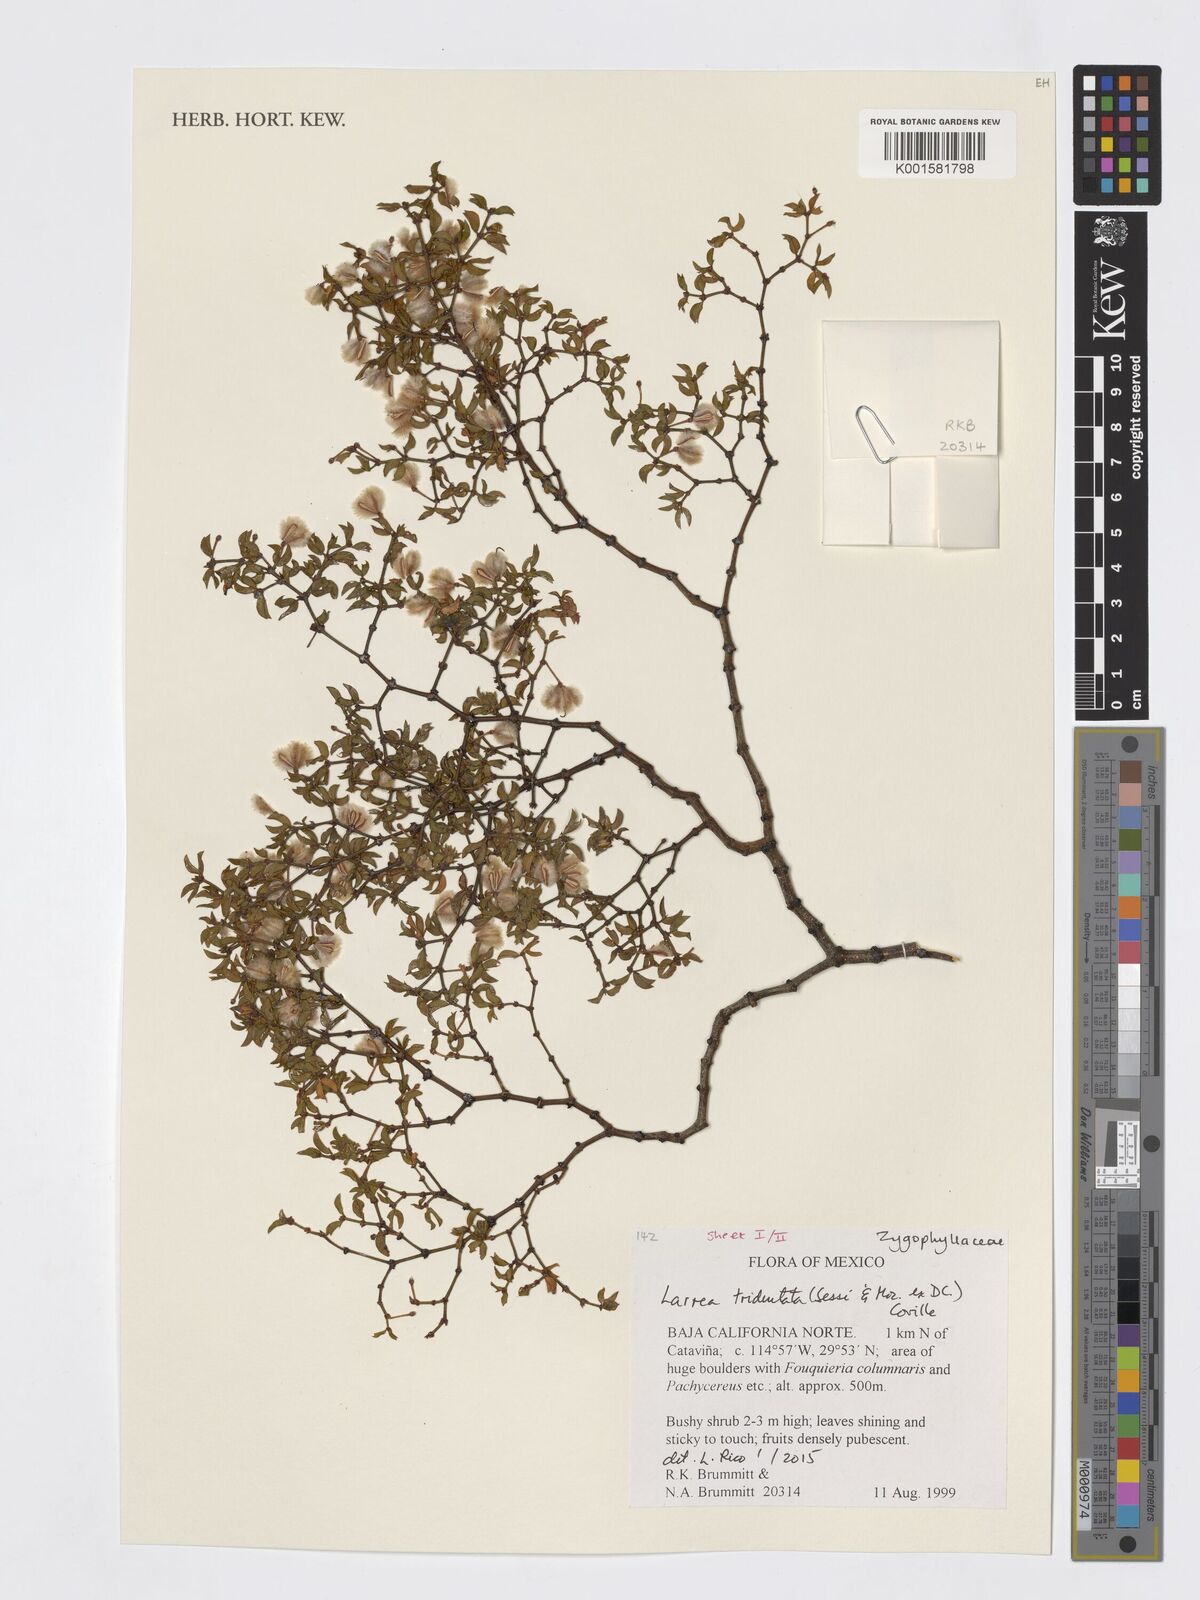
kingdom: Plantae
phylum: Tracheophyta
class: Magnoliopsida
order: Zygophyllales
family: Zygophyllaceae
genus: Larrea
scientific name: Larrea tridentata
